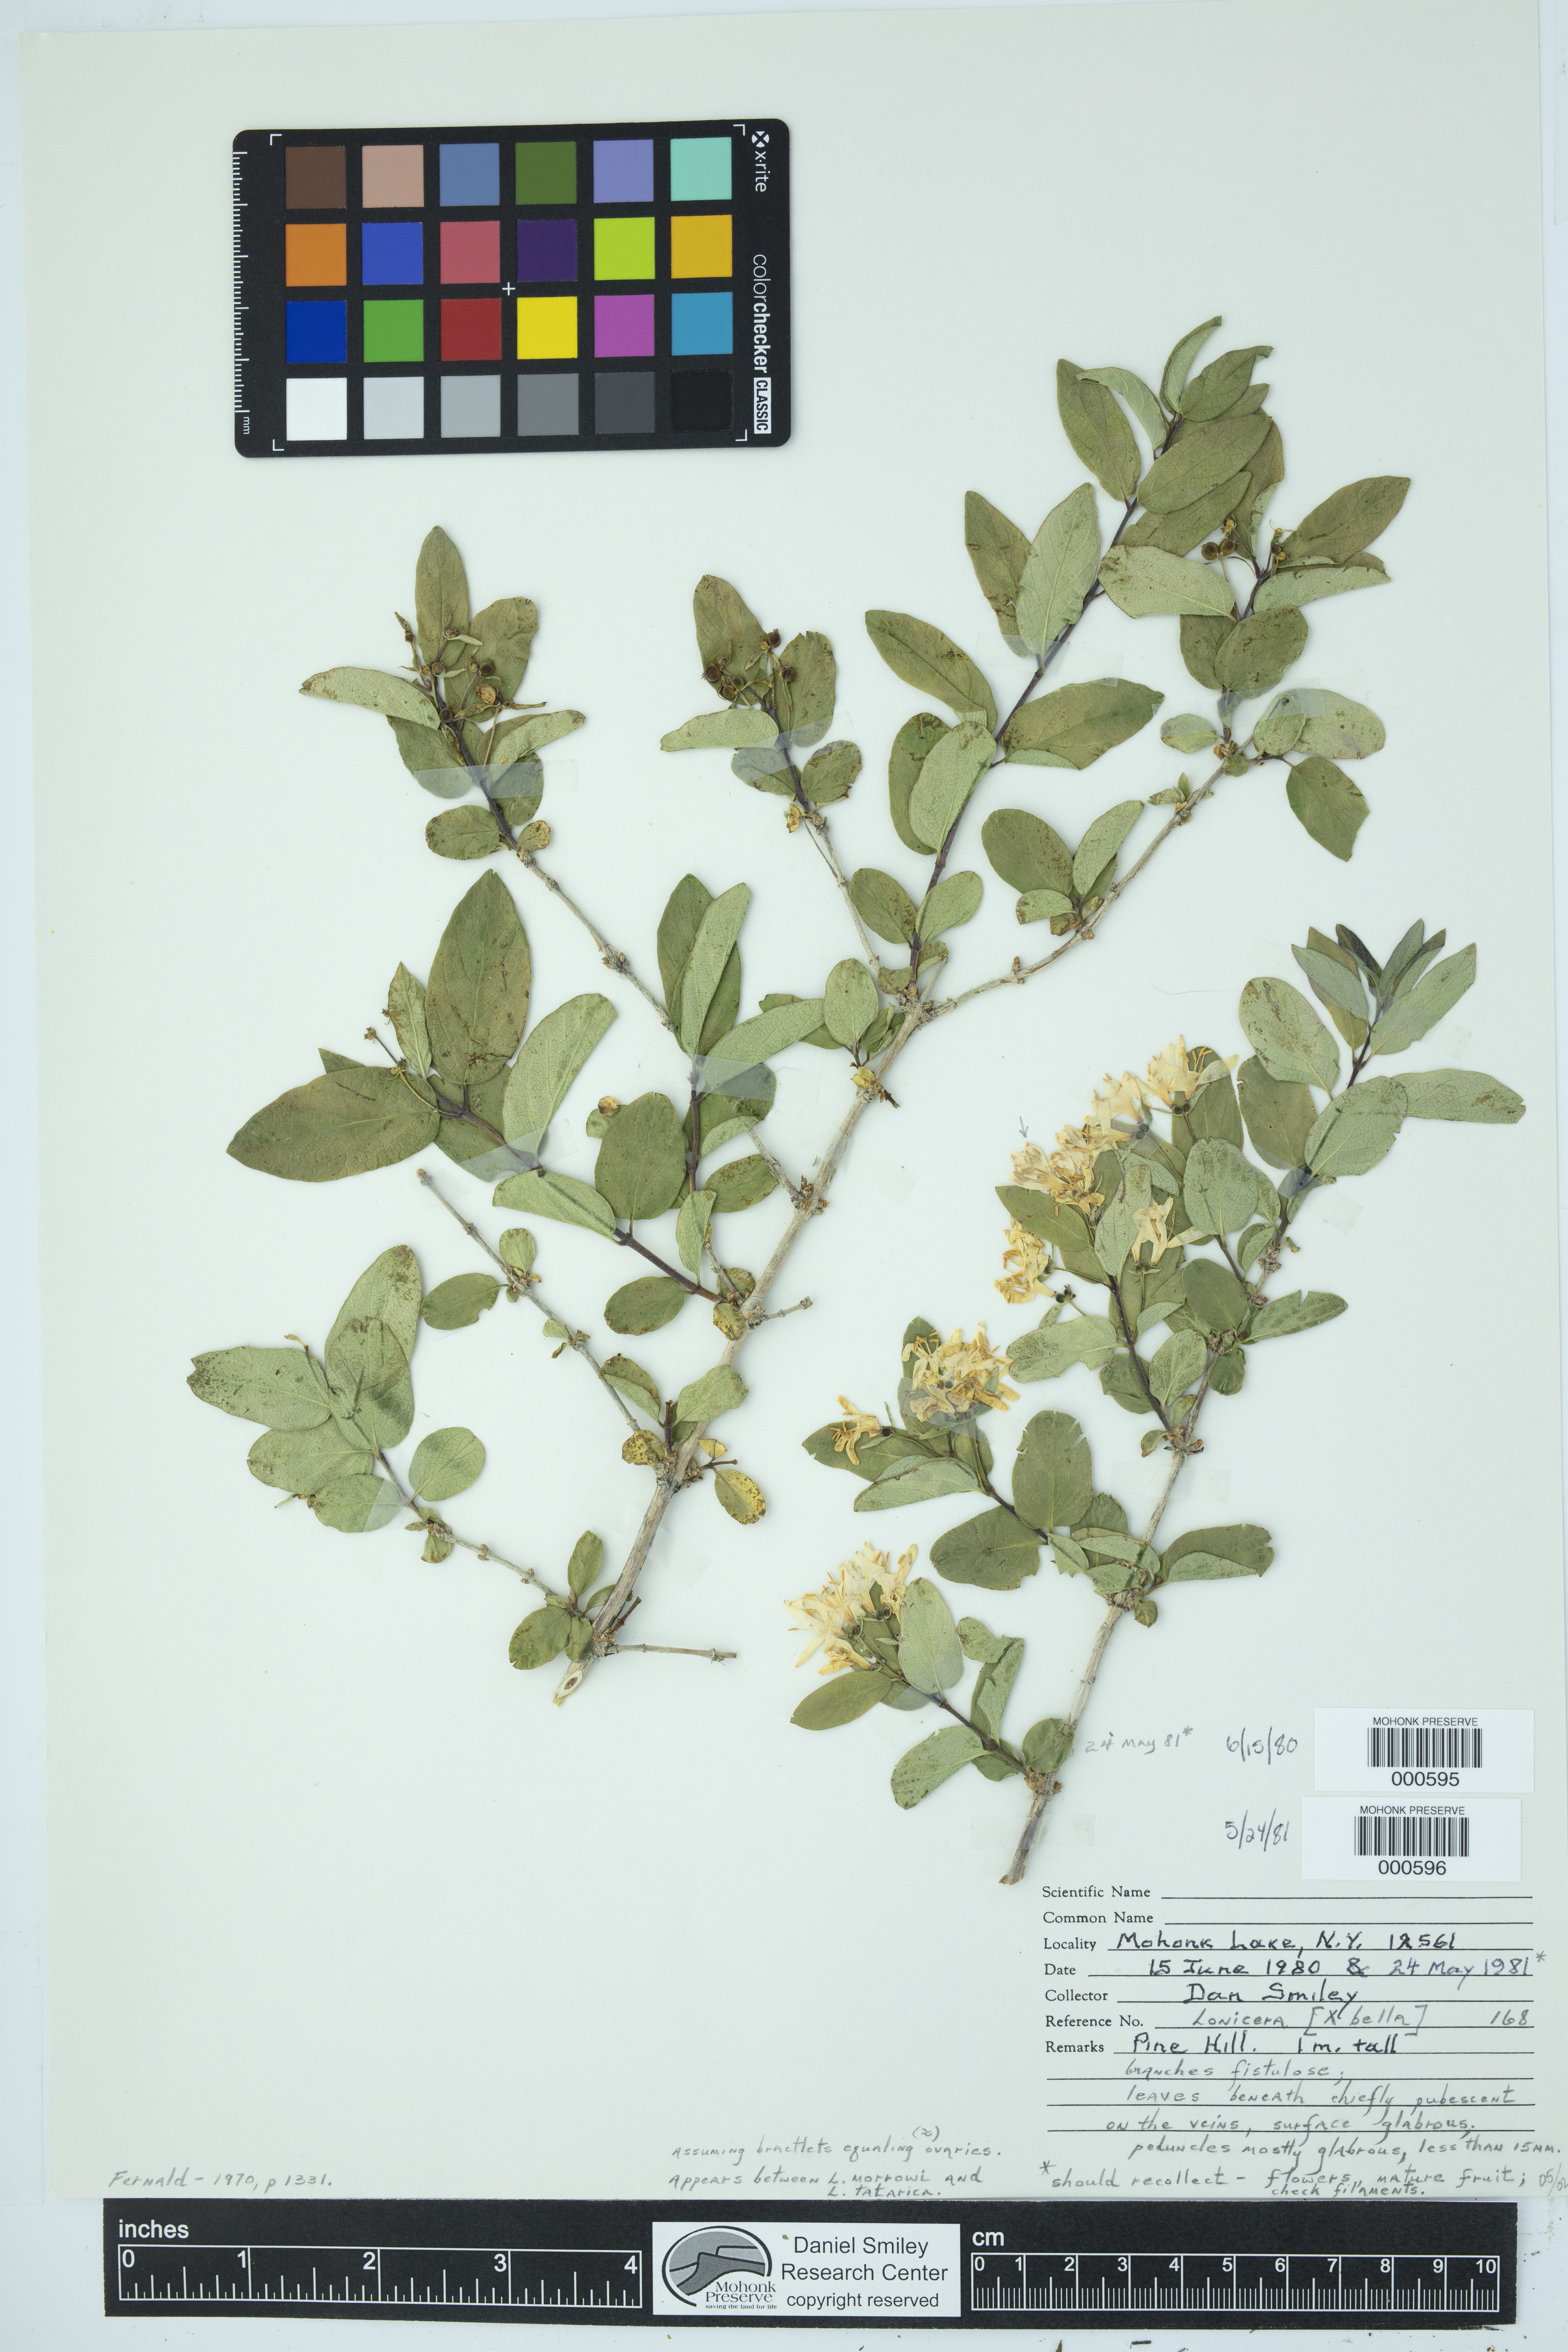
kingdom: Plantae
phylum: Tracheophyta
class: Magnoliopsida
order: Dipsacales
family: Caprifoliaceae
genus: Lonicera
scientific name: Lonicera bella
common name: Bell's honeysuckle
